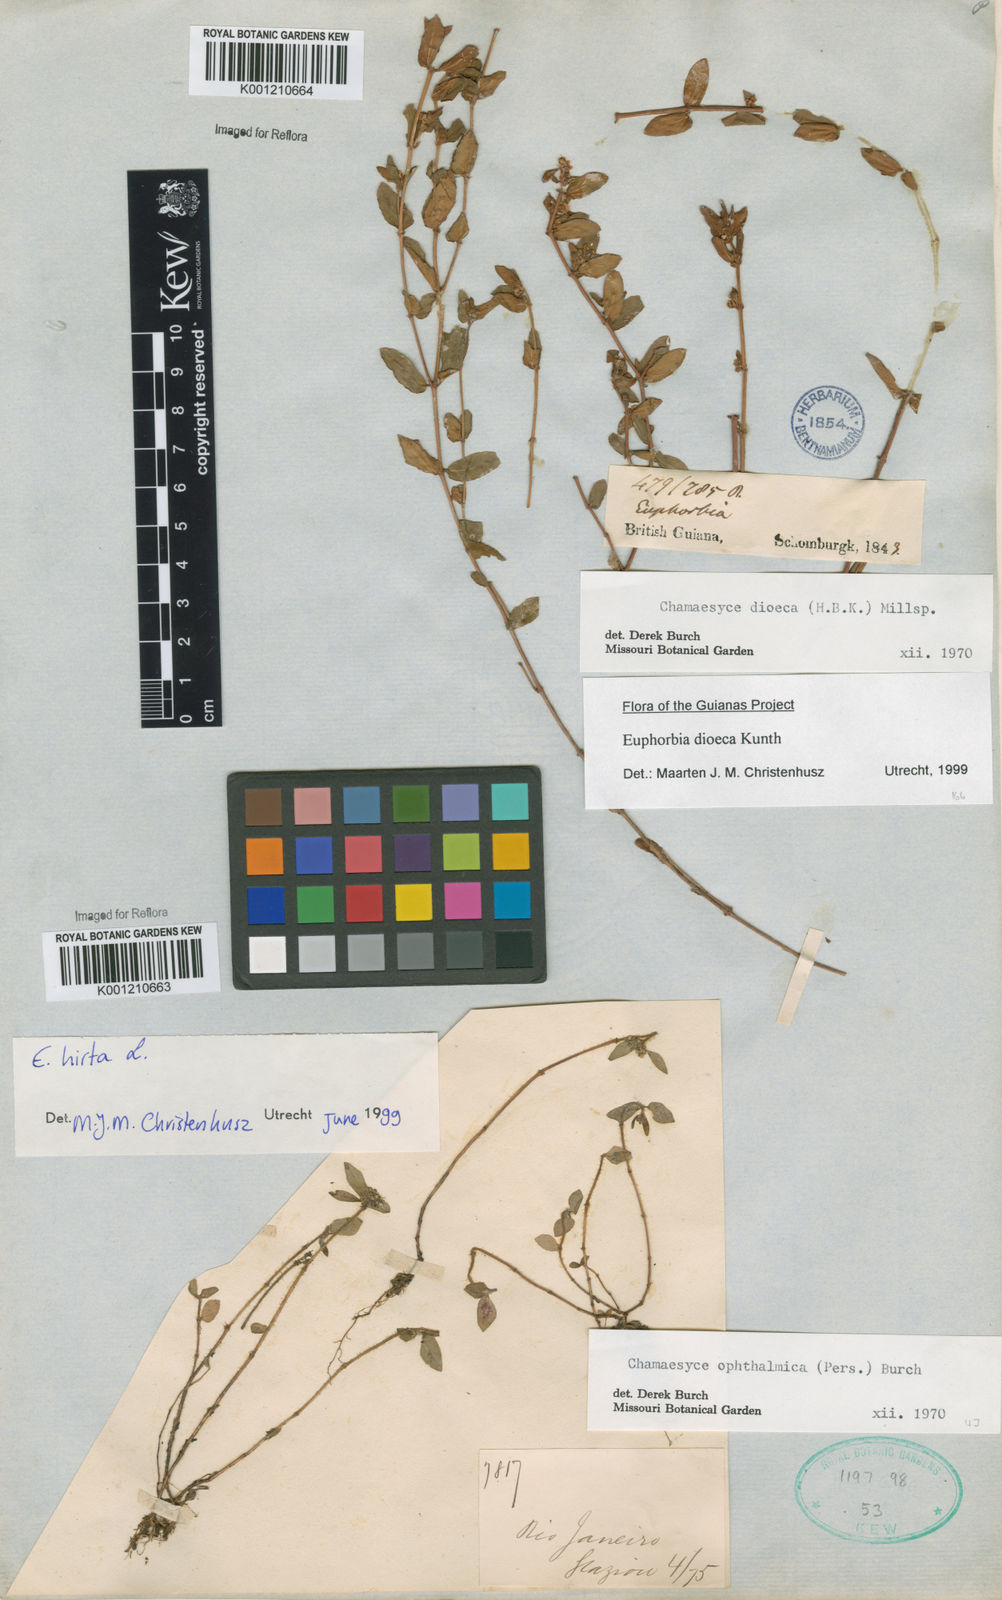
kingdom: Plantae
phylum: Tracheophyta
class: Magnoliopsida
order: Malpighiales
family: Euphorbiaceae
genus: Euphorbia
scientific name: Euphorbia
